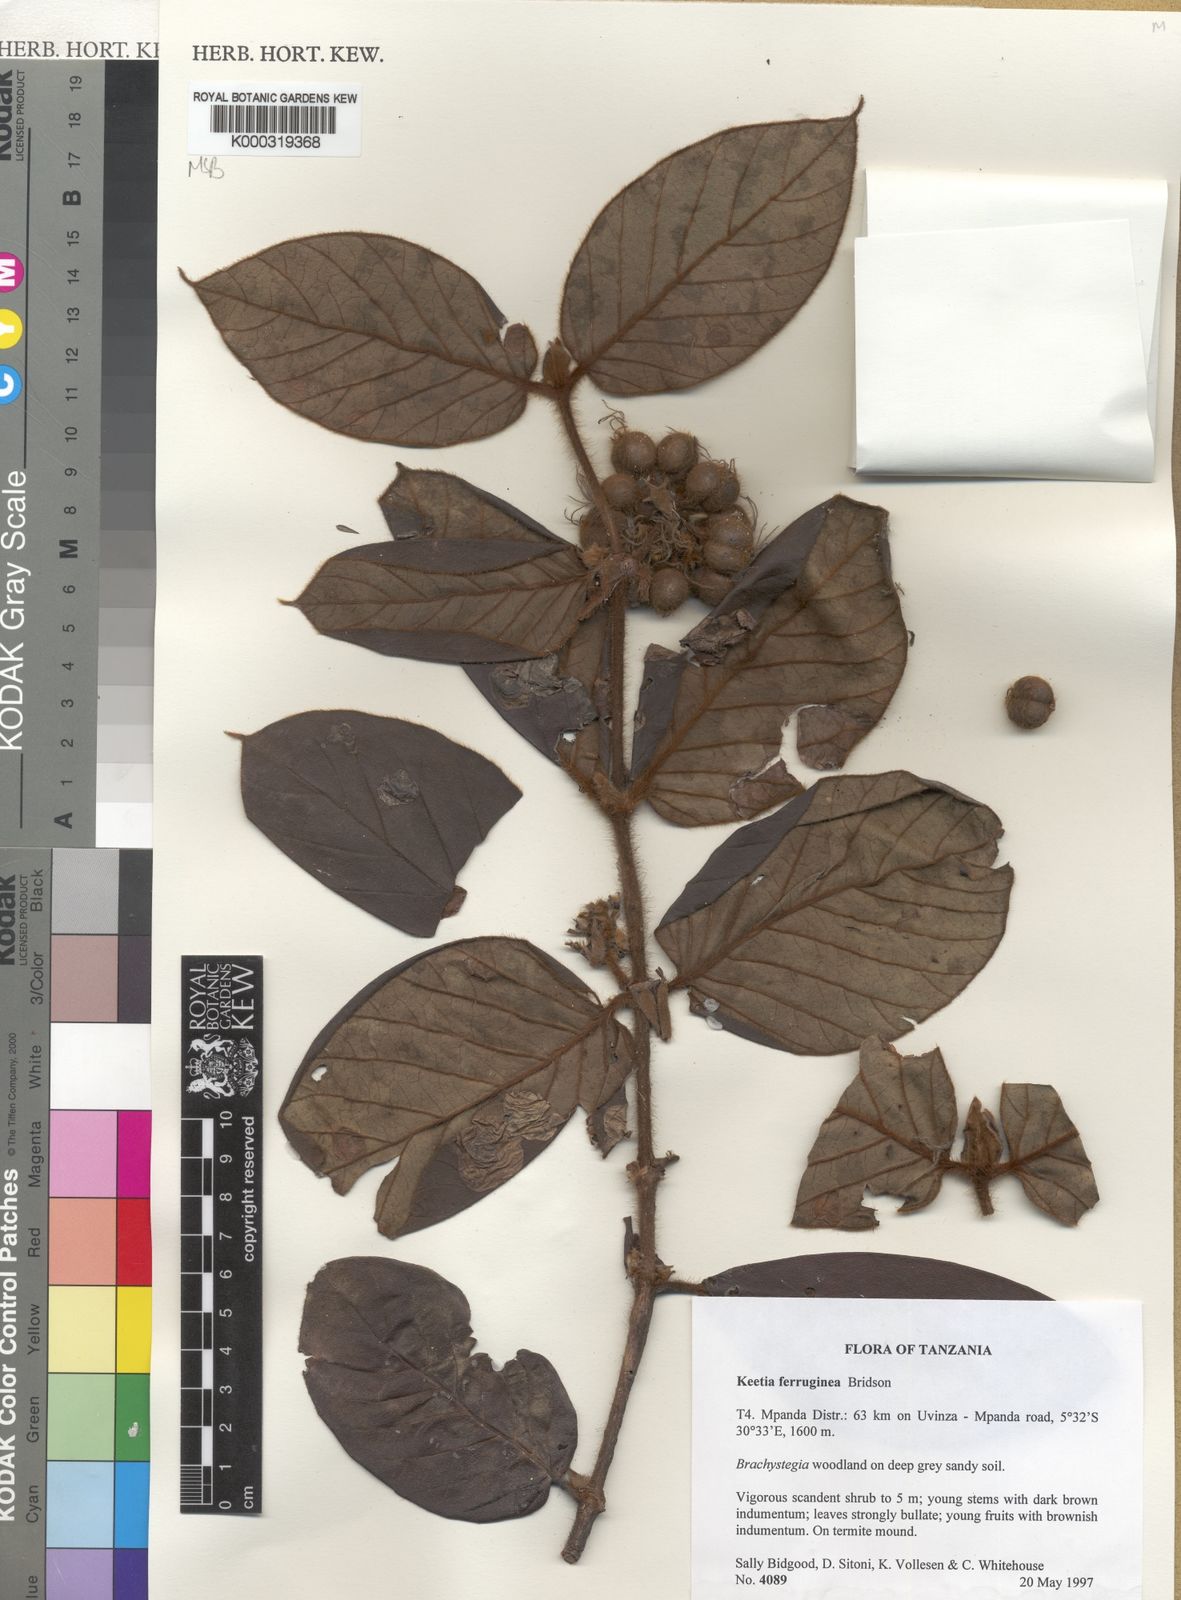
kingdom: Plantae
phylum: Tracheophyta
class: Magnoliopsida
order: Gentianales
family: Rubiaceae
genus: Keetia
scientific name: Keetia ferruginea
